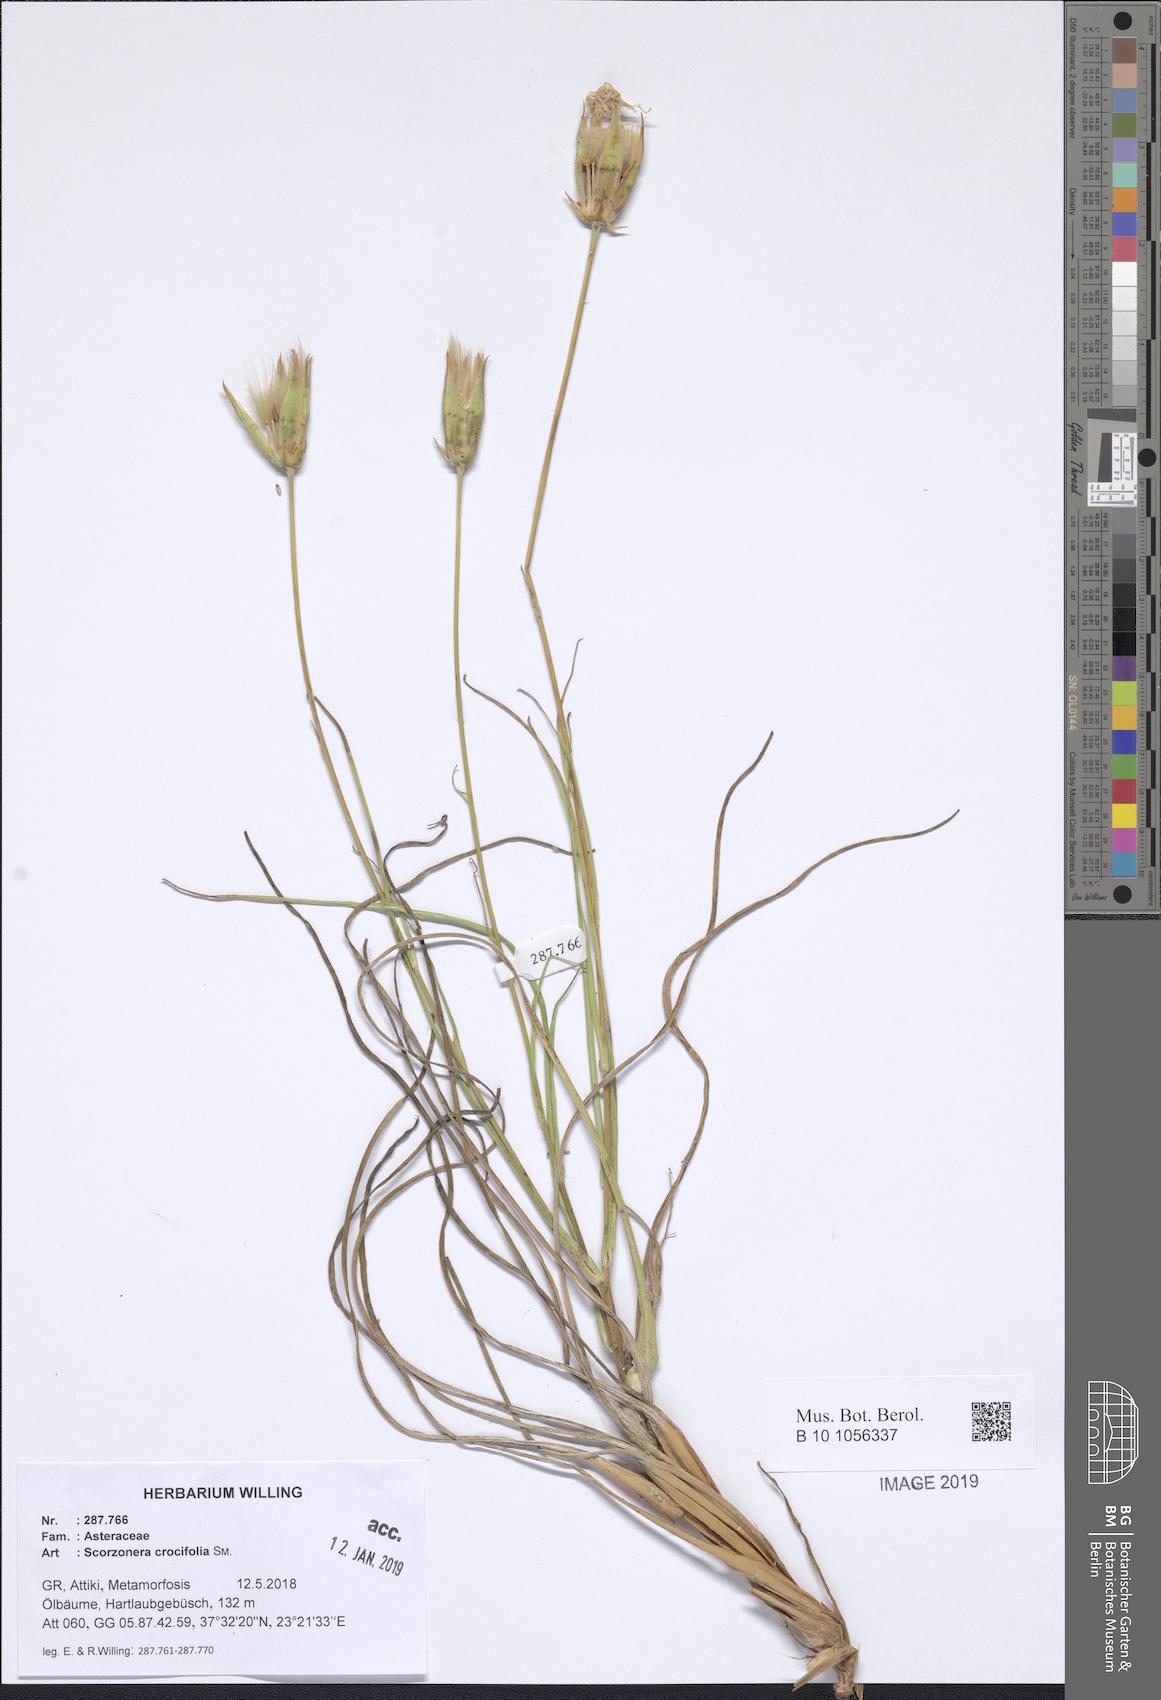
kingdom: Plantae
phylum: Tracheophyta
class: Magnoliopsida
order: Asterales
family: Asteraceae
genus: Pseudopodospermum
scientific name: Pseudopodospermum crocifolium
